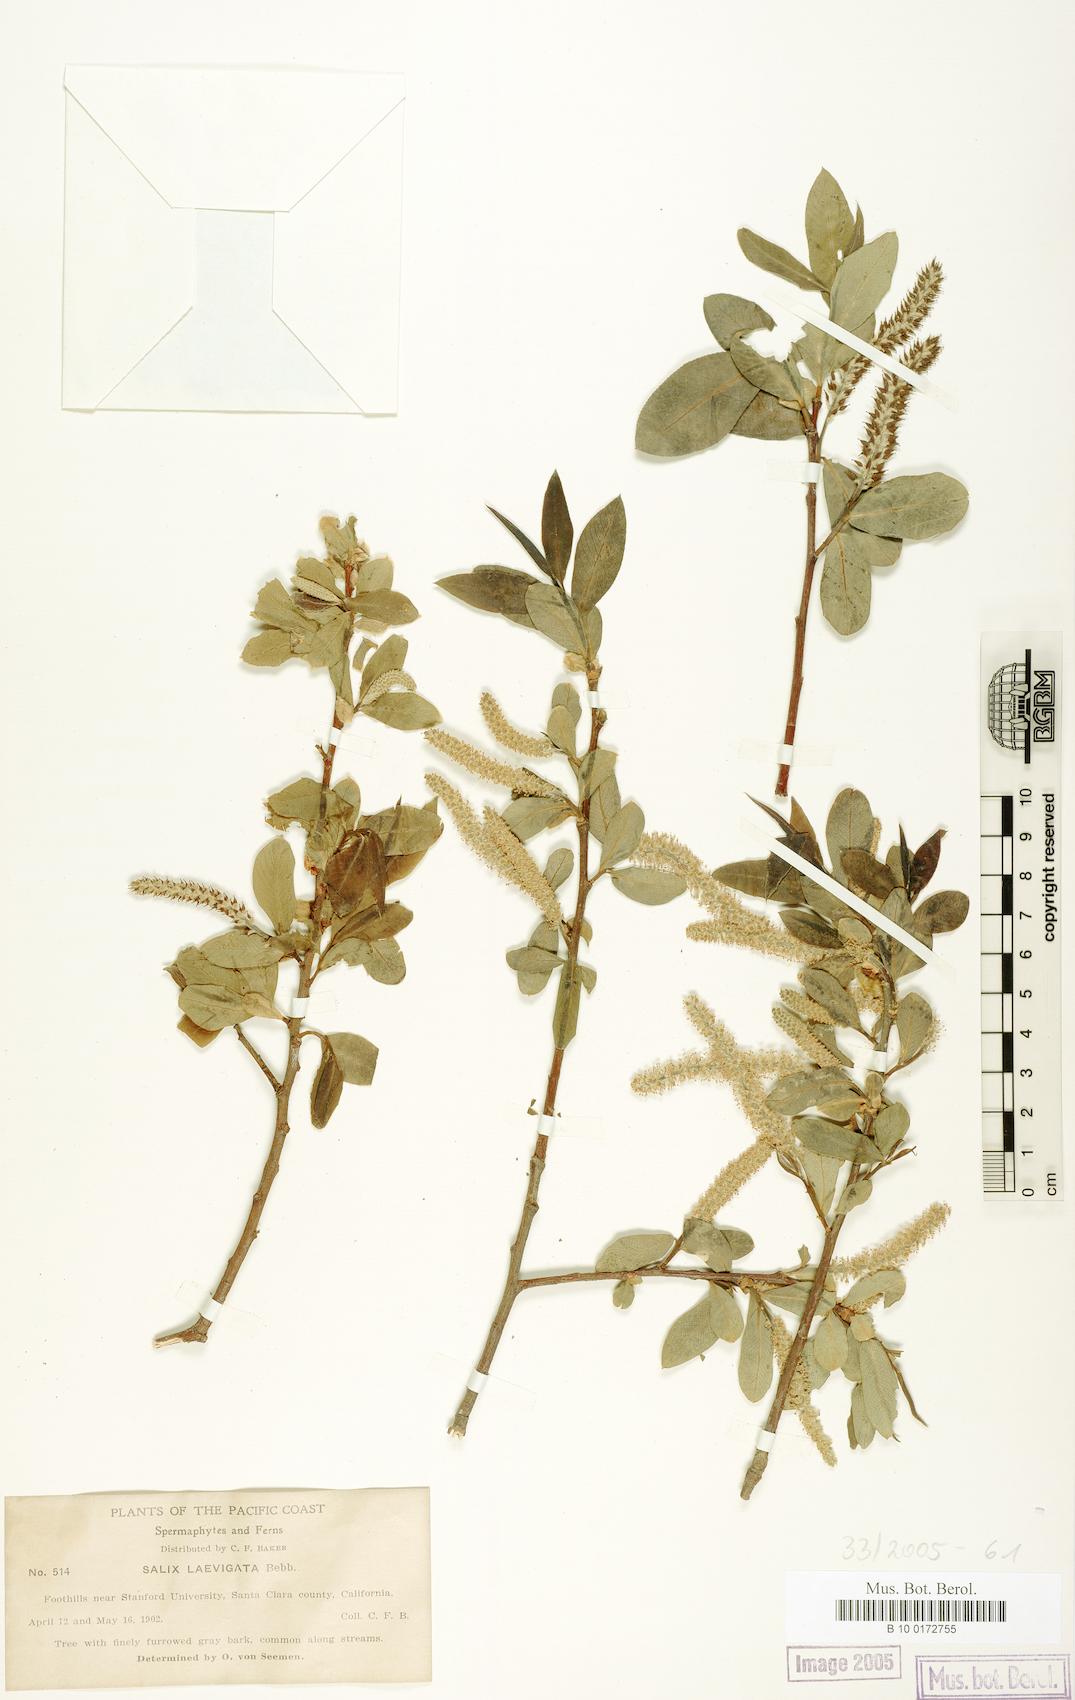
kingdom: Plantae
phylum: Tracheophyta
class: Magnoliopsida
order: Malpighiales
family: Salicaceae
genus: Salix
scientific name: Salix laevigata
